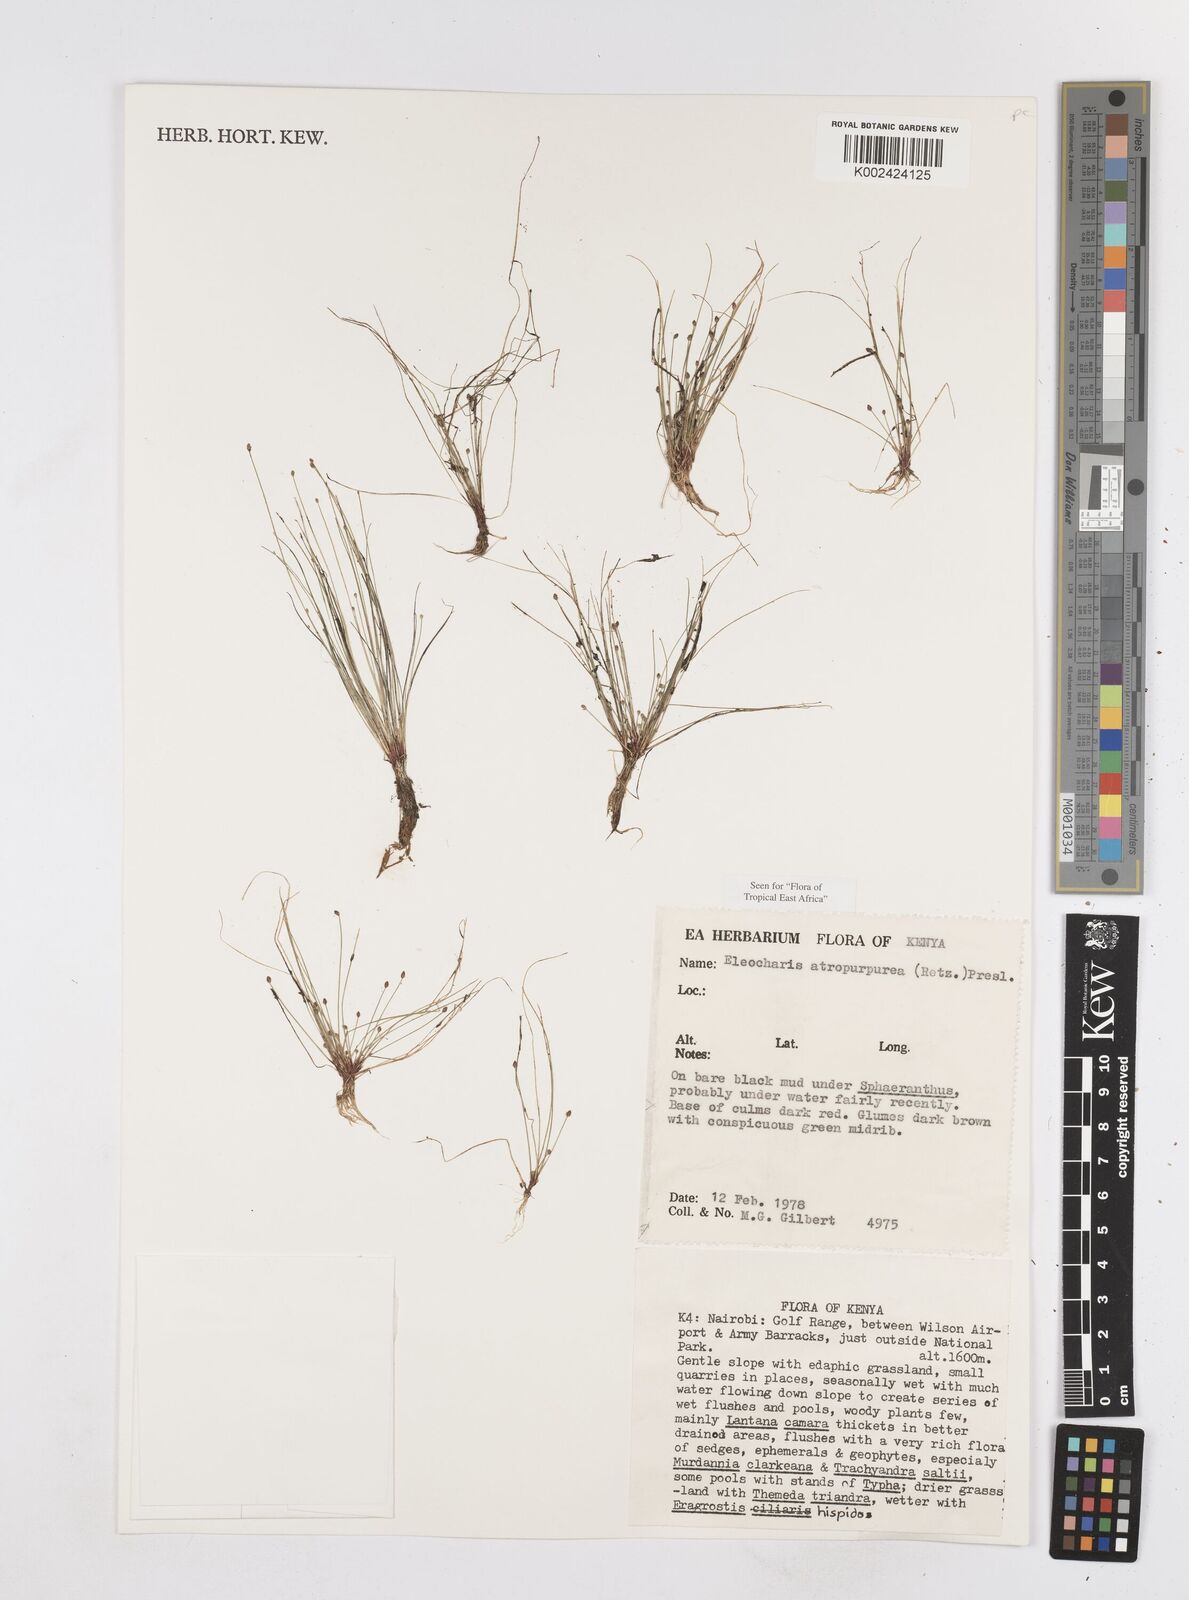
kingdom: Plantae
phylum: Tracheophyta
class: Liliopsida
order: Poales
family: Cyperaceae
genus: Eleocharis
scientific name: Eleocharis atropurpurea
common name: Purple spikerush
